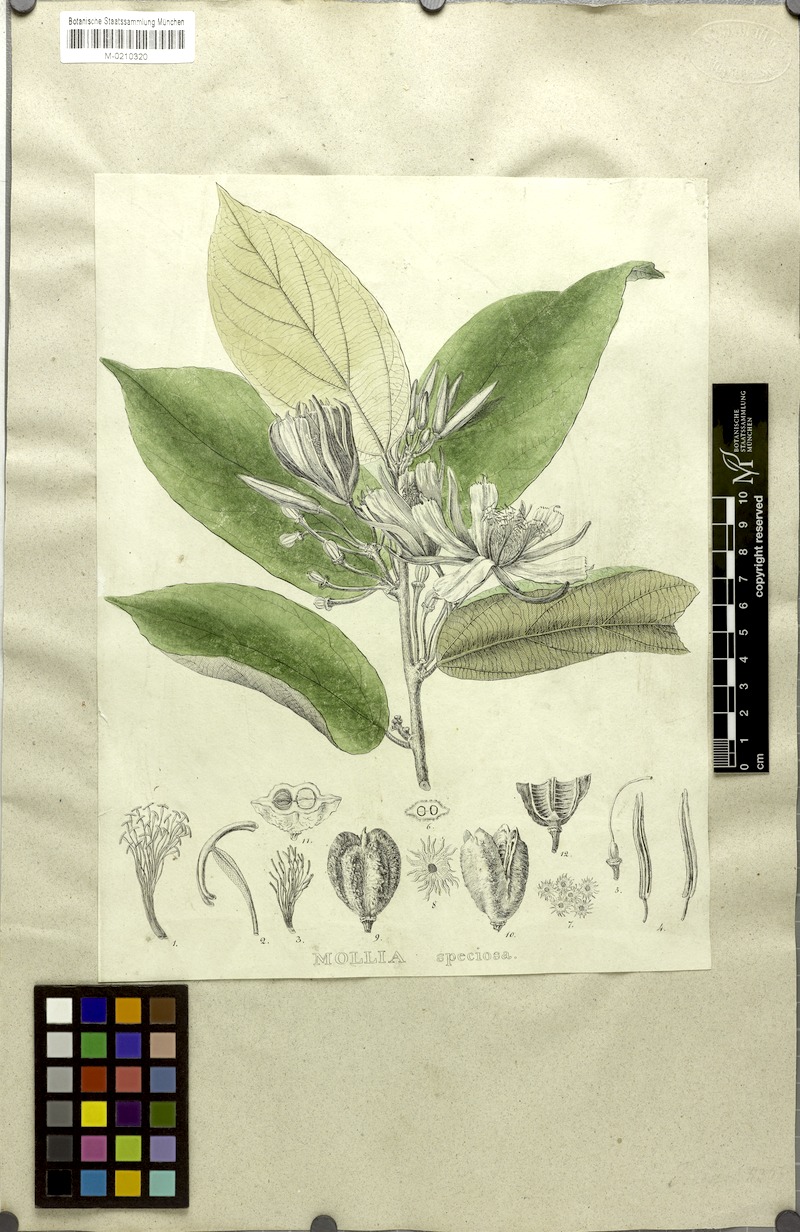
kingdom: Plantae
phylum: Tracheophyta
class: Magnoliopsida
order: Malvales
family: Malvaceae
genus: Mollia
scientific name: Mollia speciosa
